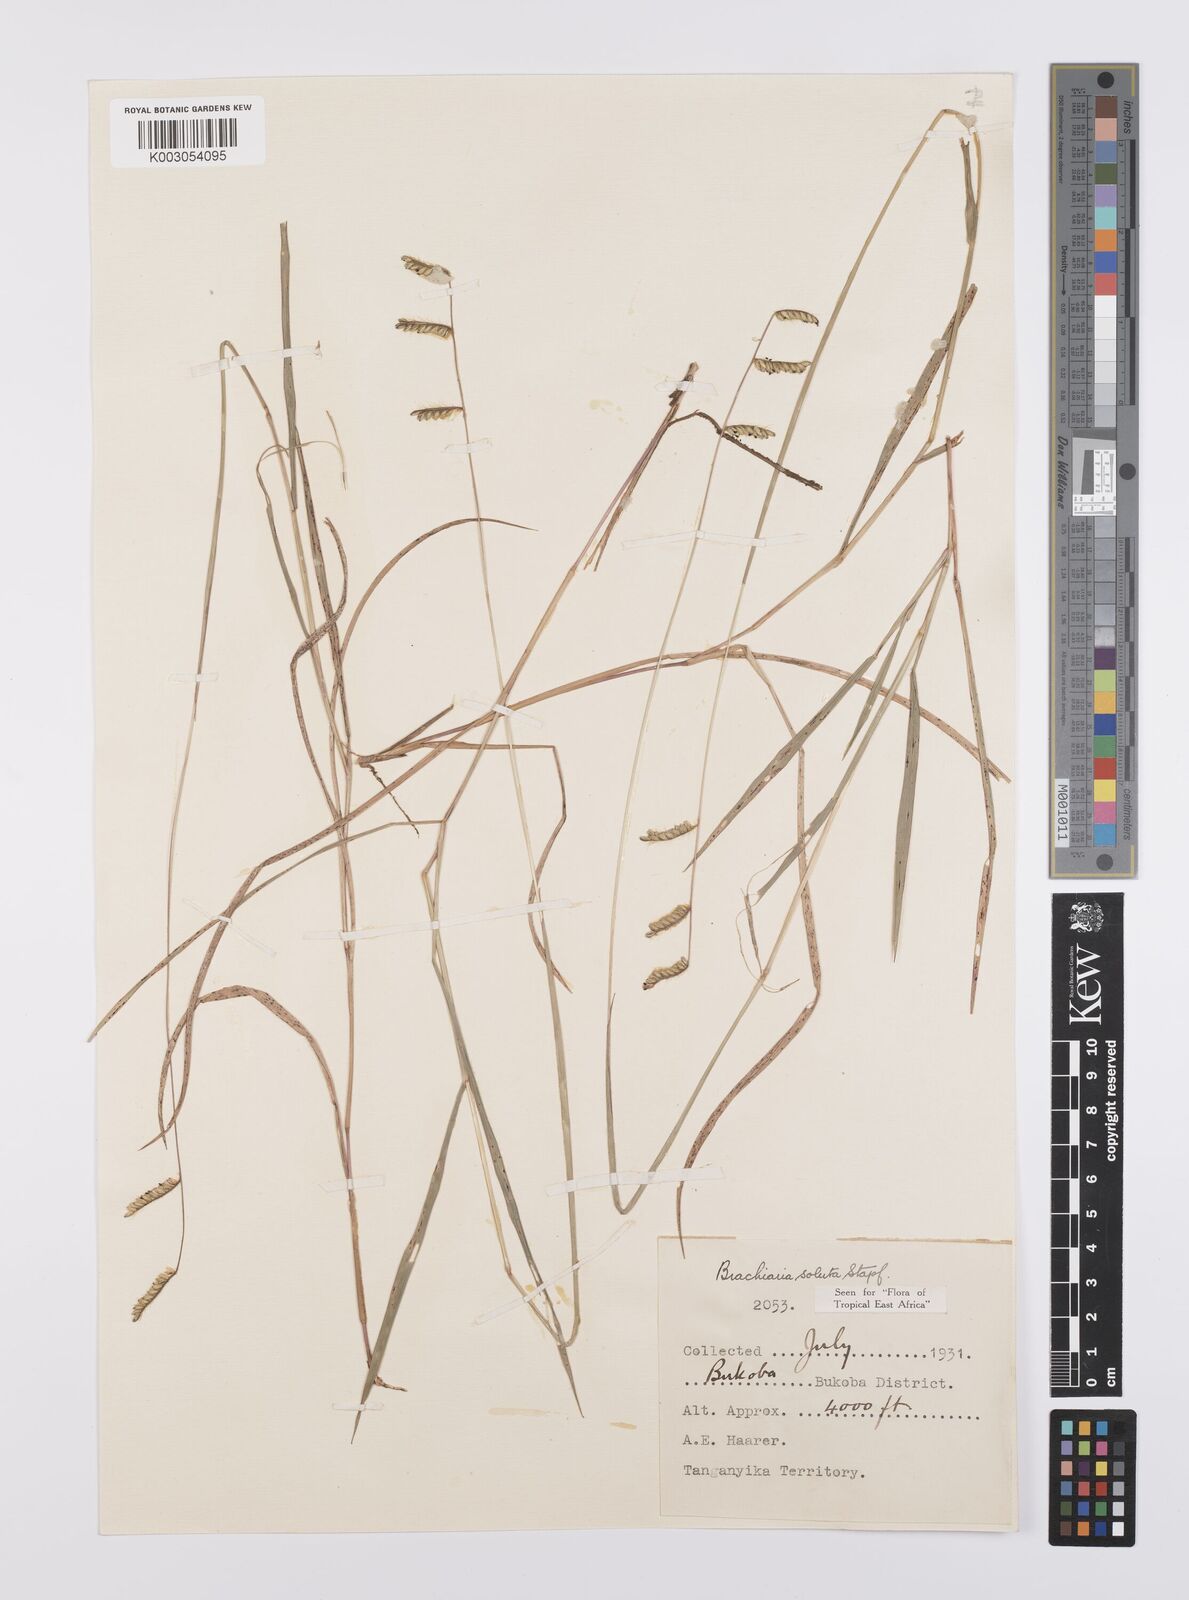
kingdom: Plantae
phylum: Tracheophyta
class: Liliopsida
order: Poales
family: Poaceae
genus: Urochloa
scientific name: Urochloa jubata
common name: Buffalograss
